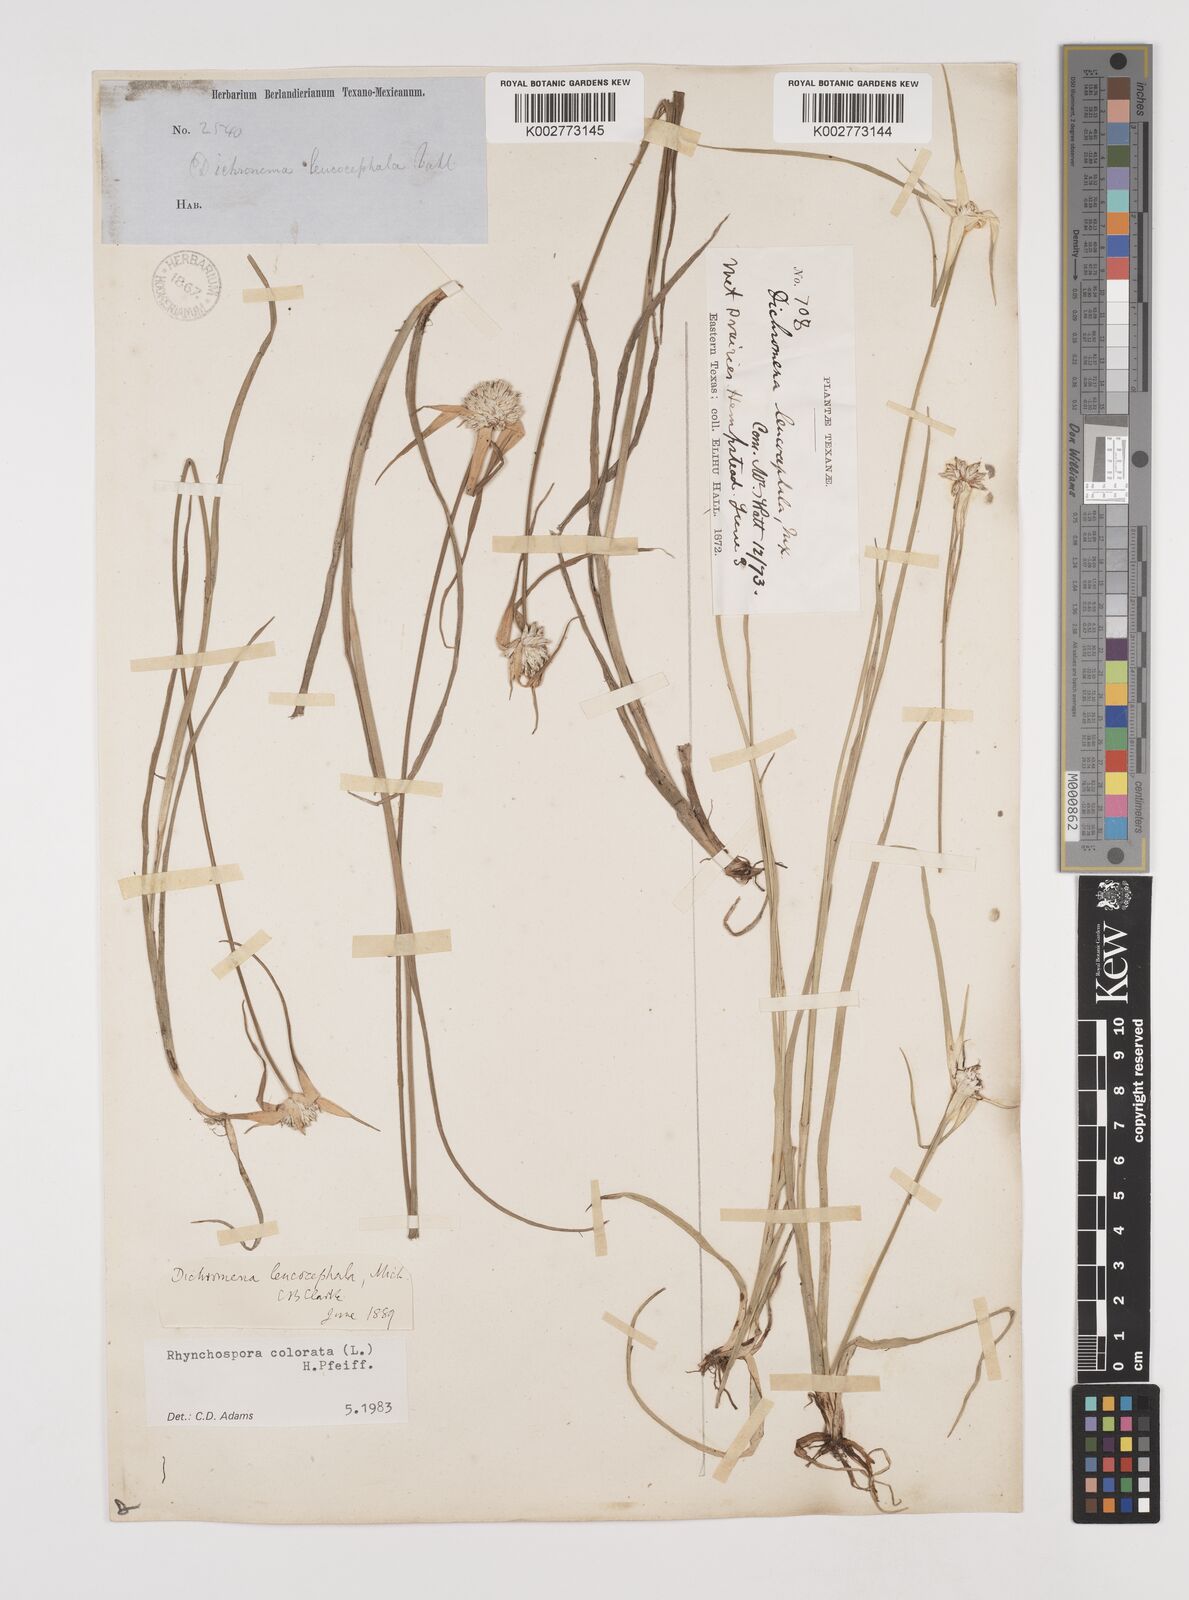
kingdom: Plantae
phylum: Tracheophyta
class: Liliopsida
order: Poales
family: Cyperaceae
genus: Rhynchospora
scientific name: Rhynchospora colorata
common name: Star sedge
